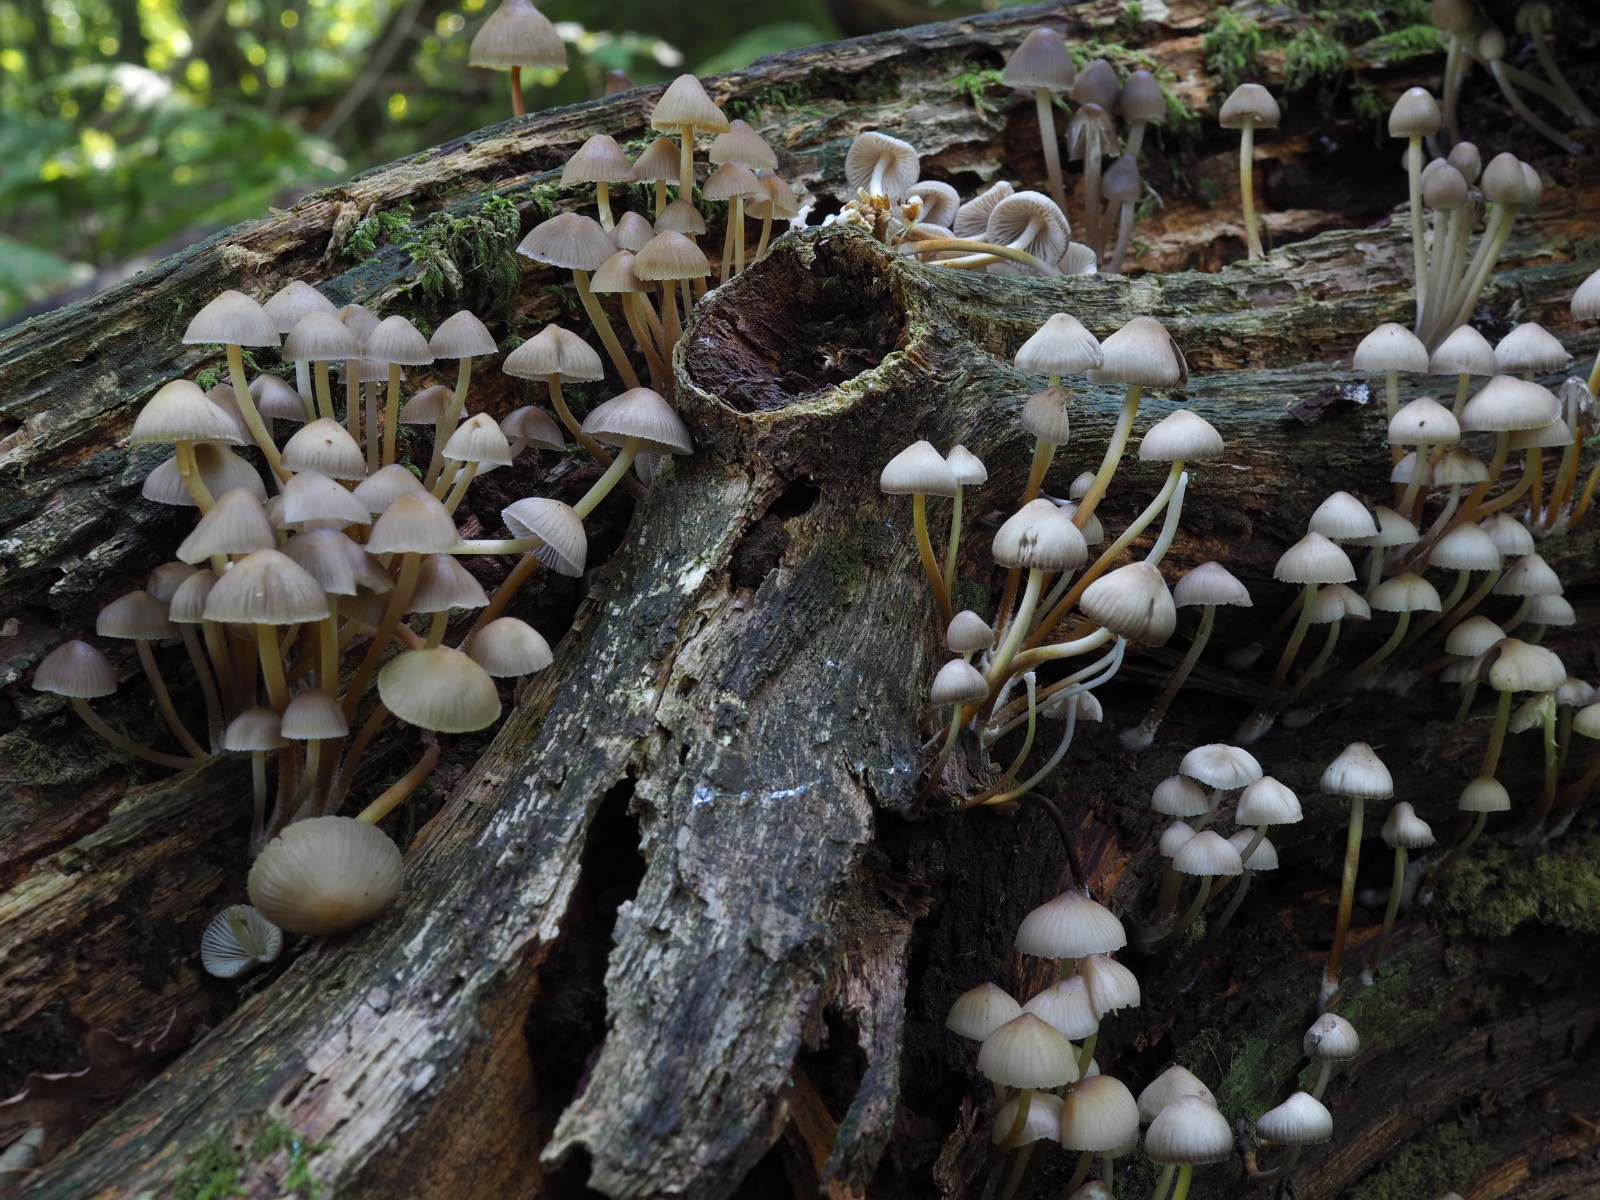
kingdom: Fungi
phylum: Basidiomycota
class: Agaricomycetes
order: Agaricales
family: Mycenaceae
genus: Mycena
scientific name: Mycena inclinata
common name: nikkende huesvamp
